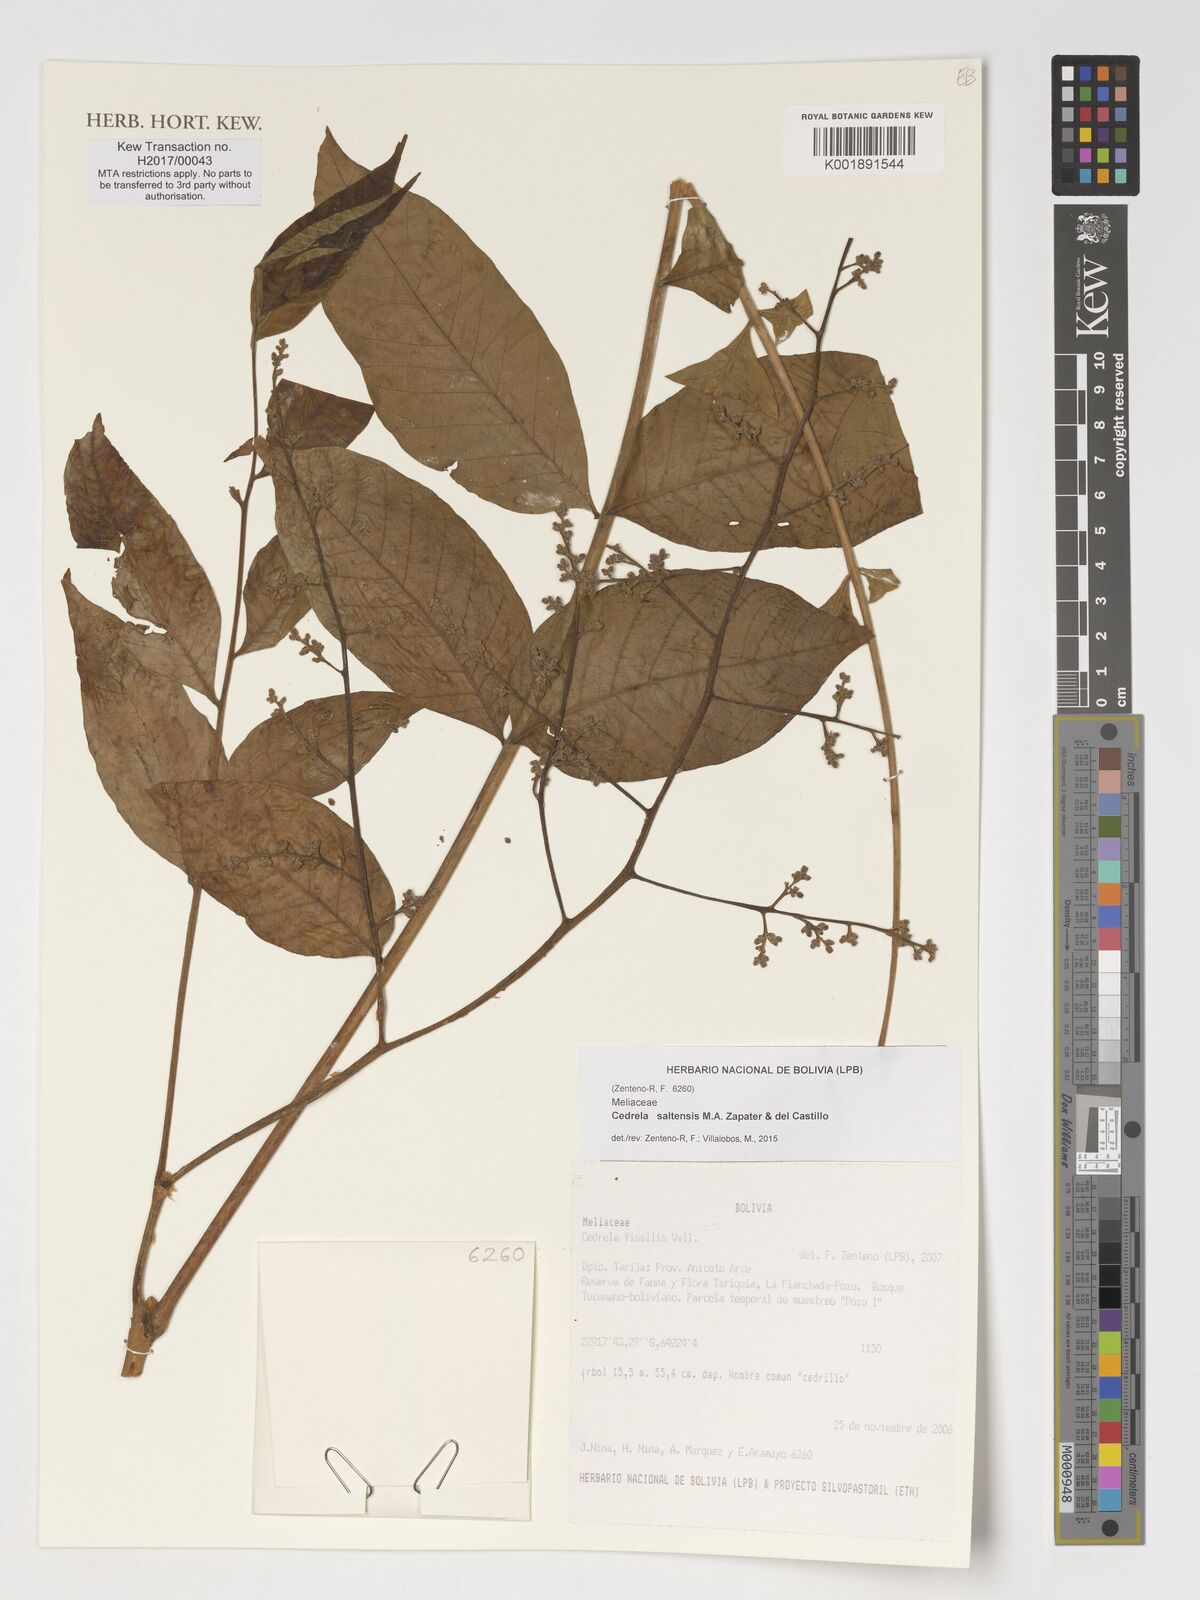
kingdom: Plantae
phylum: Tracheophyta
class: Magnoliopsida
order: Sapindales
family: Meliaceae
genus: Cedrela
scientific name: Cedrela saltensis
